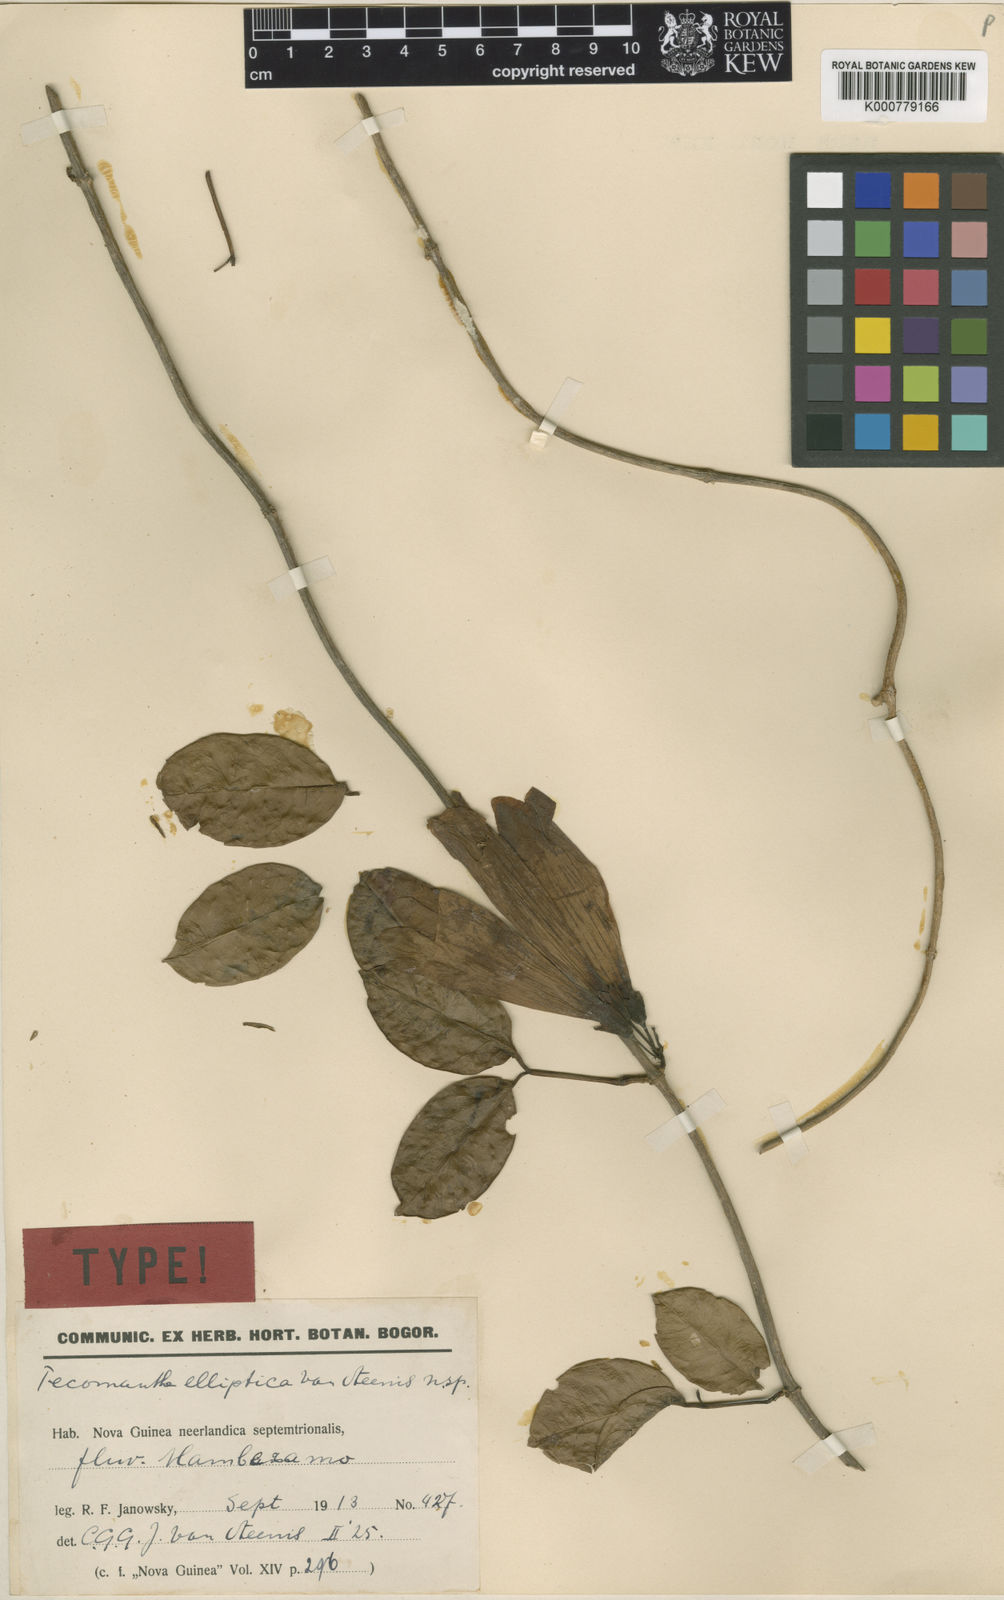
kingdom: Plantae
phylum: Tracheophyta
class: Magnoliopsida
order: Lamiales
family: Bignoniaceae
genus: Tecomanthe
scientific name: Tecomanthe dendrophila
